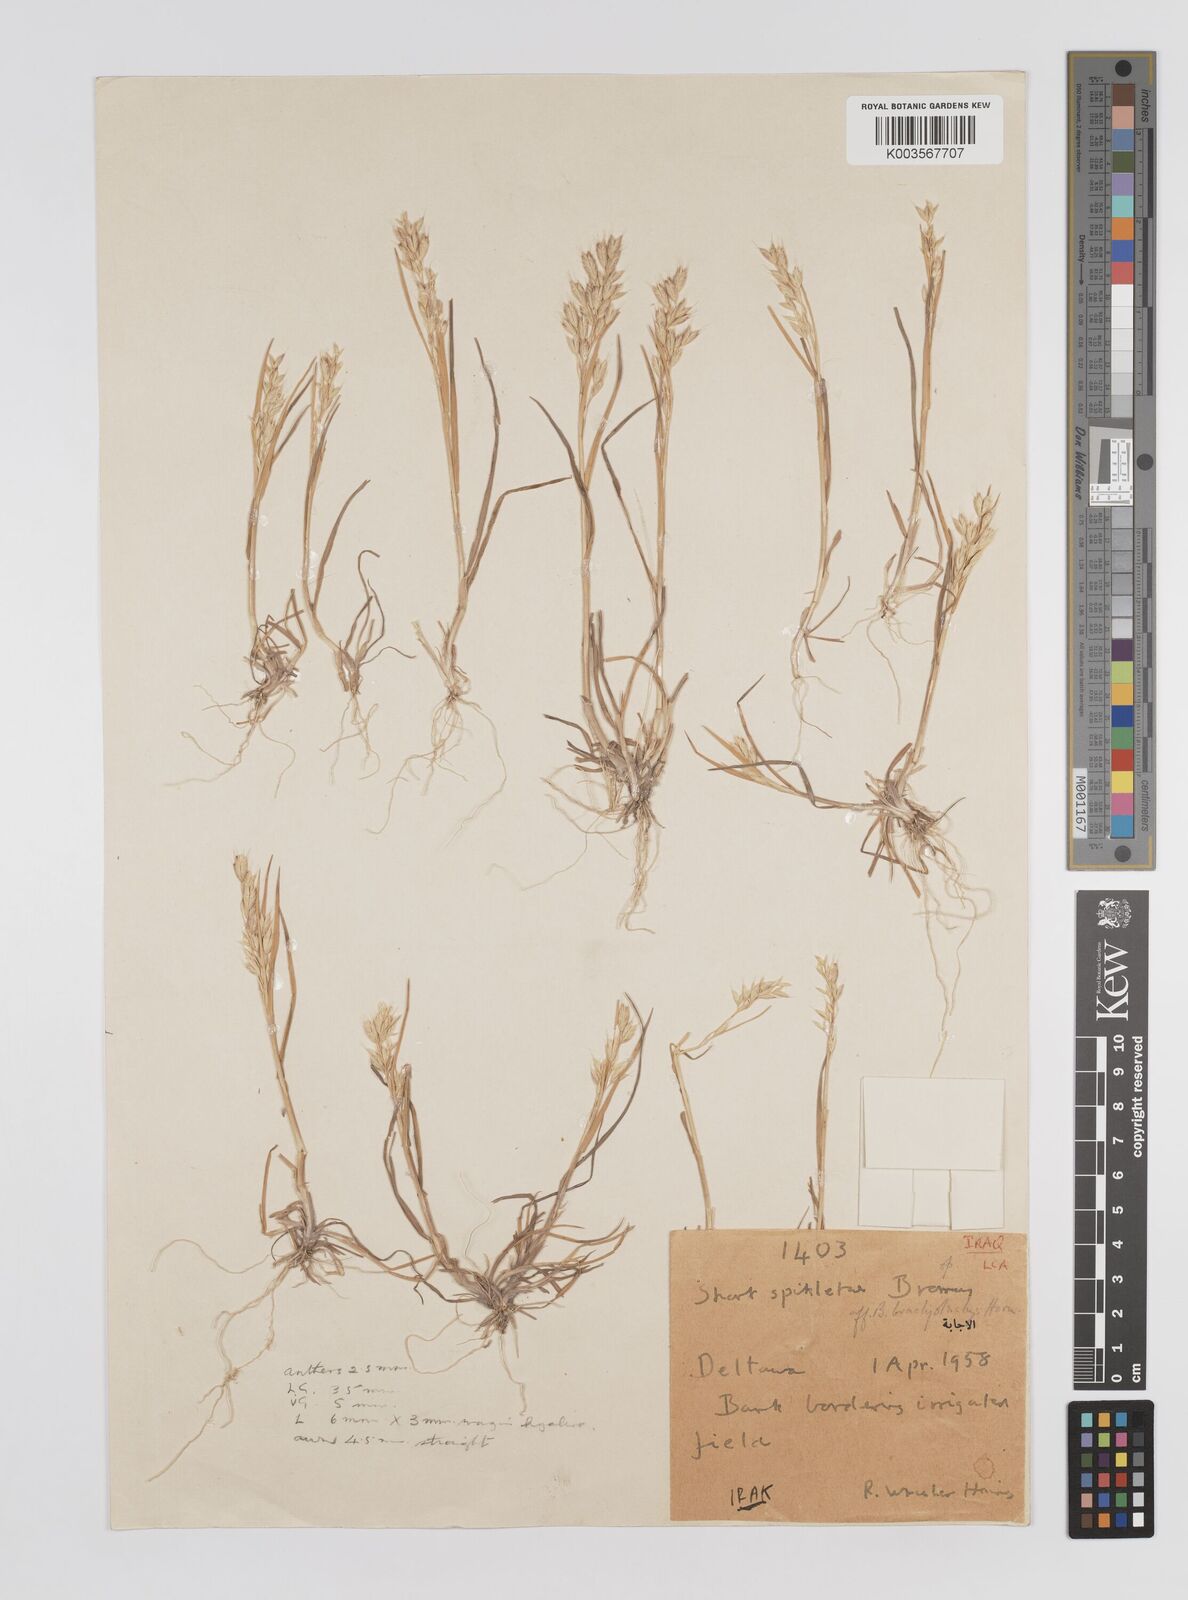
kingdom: Plantae
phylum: Tracheophyta
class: Liliopsida
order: Poales
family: Poaceae
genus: Bromus
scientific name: Bromus
